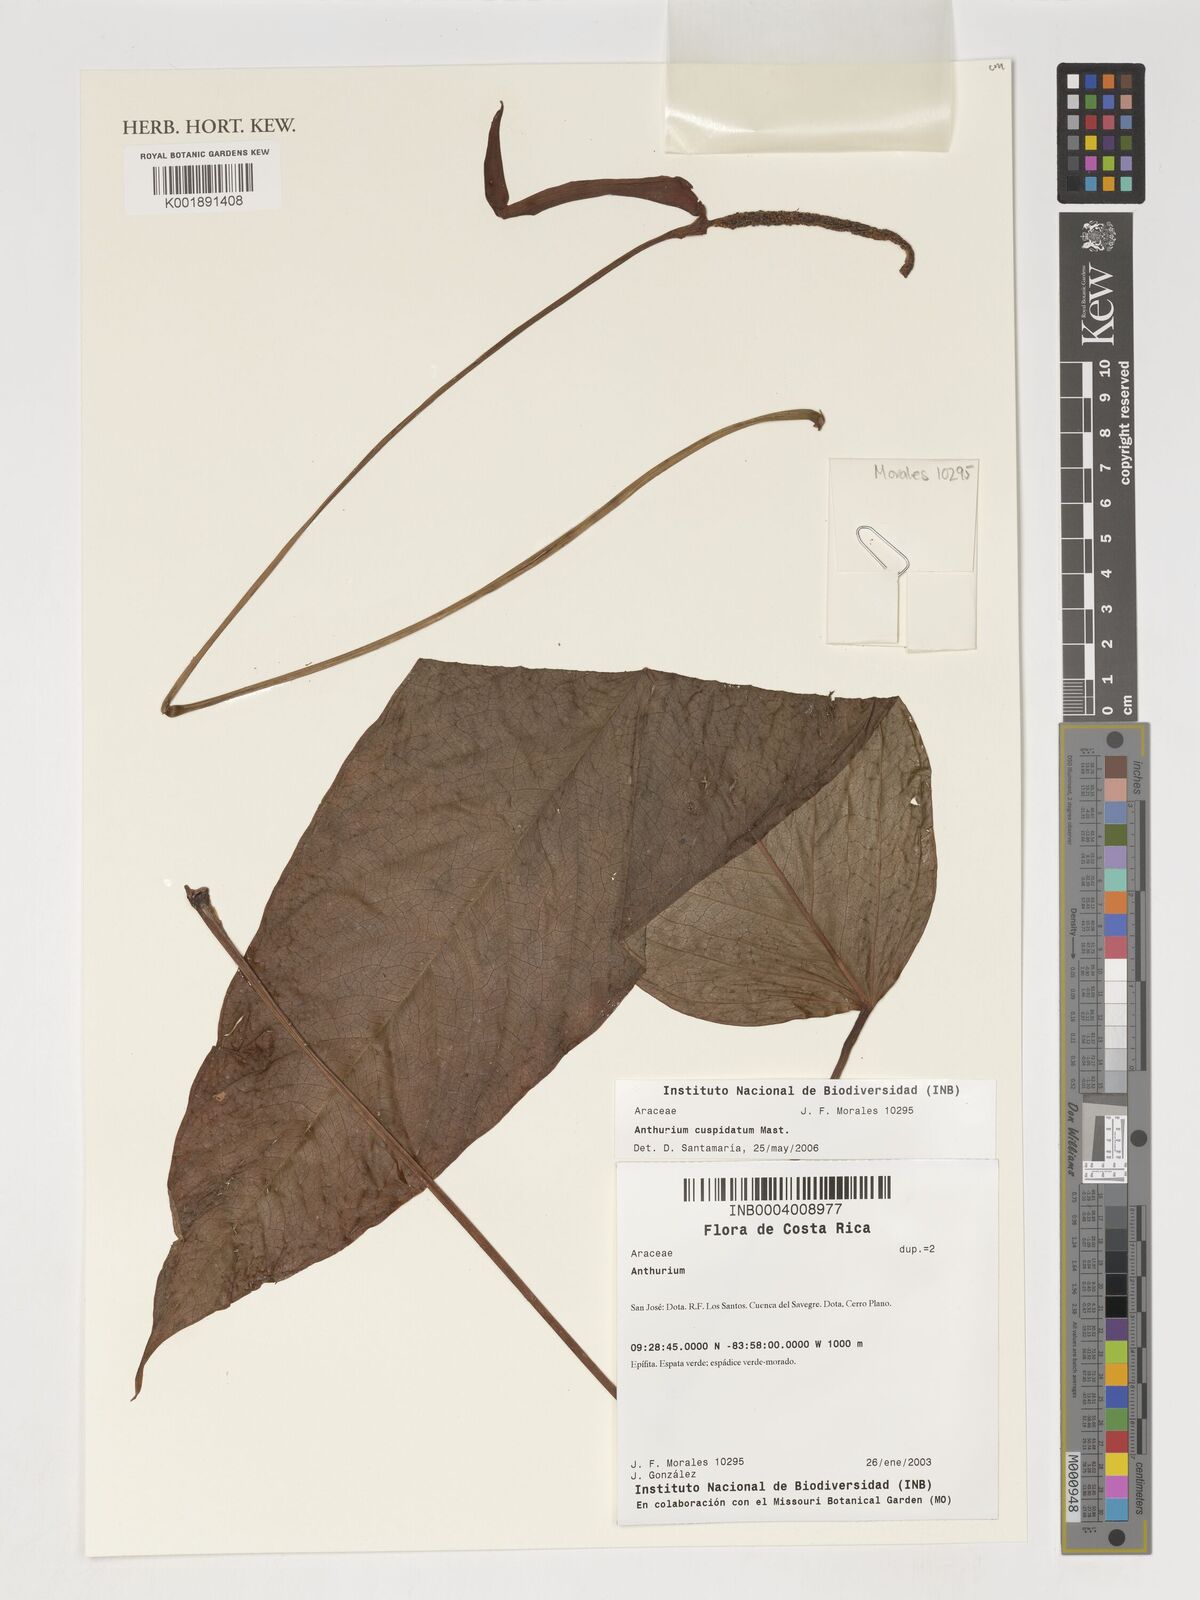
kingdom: Plantae
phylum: Tracheophyta
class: Liliopsida
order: Alismatales
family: Araceae
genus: Anthurium
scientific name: Anthurium cuspidatum
